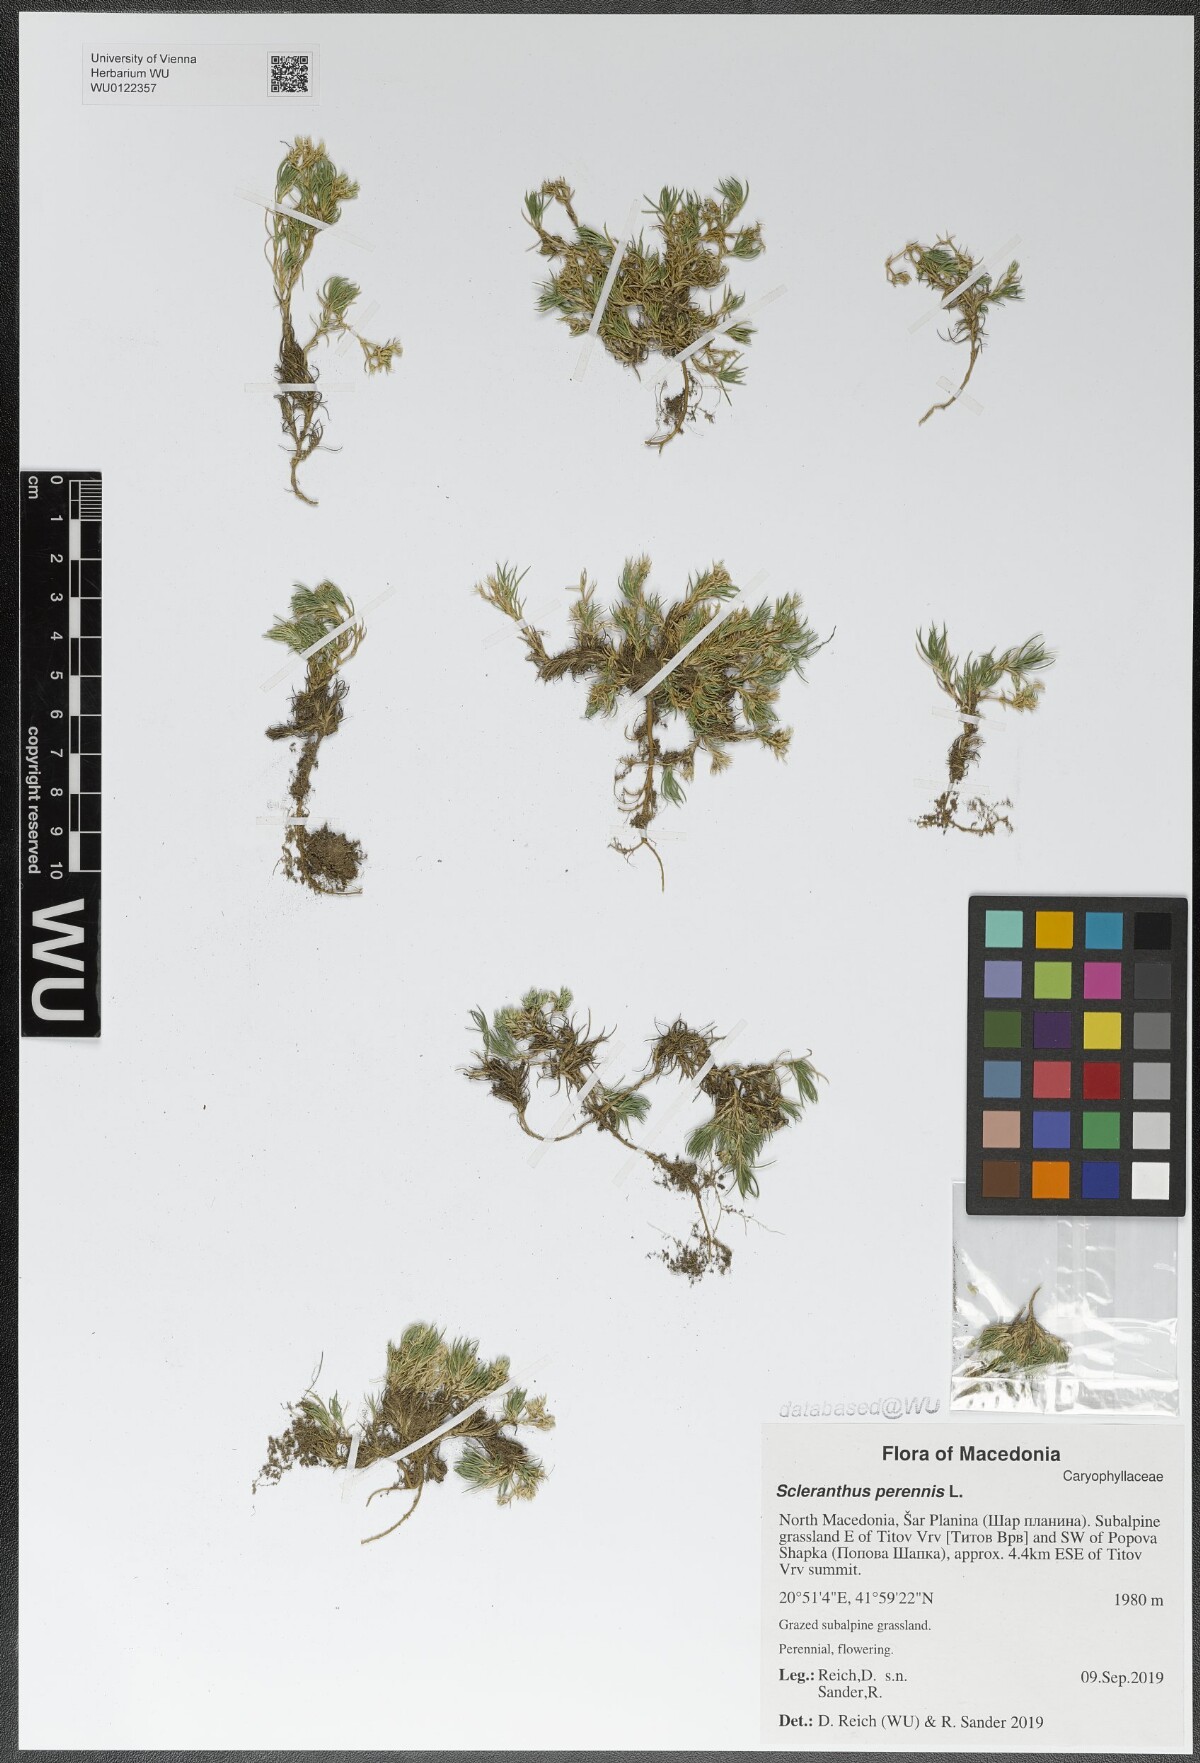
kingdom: Plantae
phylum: Tracheophyta
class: Magnoliopsida
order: Caryophyllales
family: Caryophyllaceae
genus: Scleranthus
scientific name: Scleranthus perennis
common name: Perennial knawel
